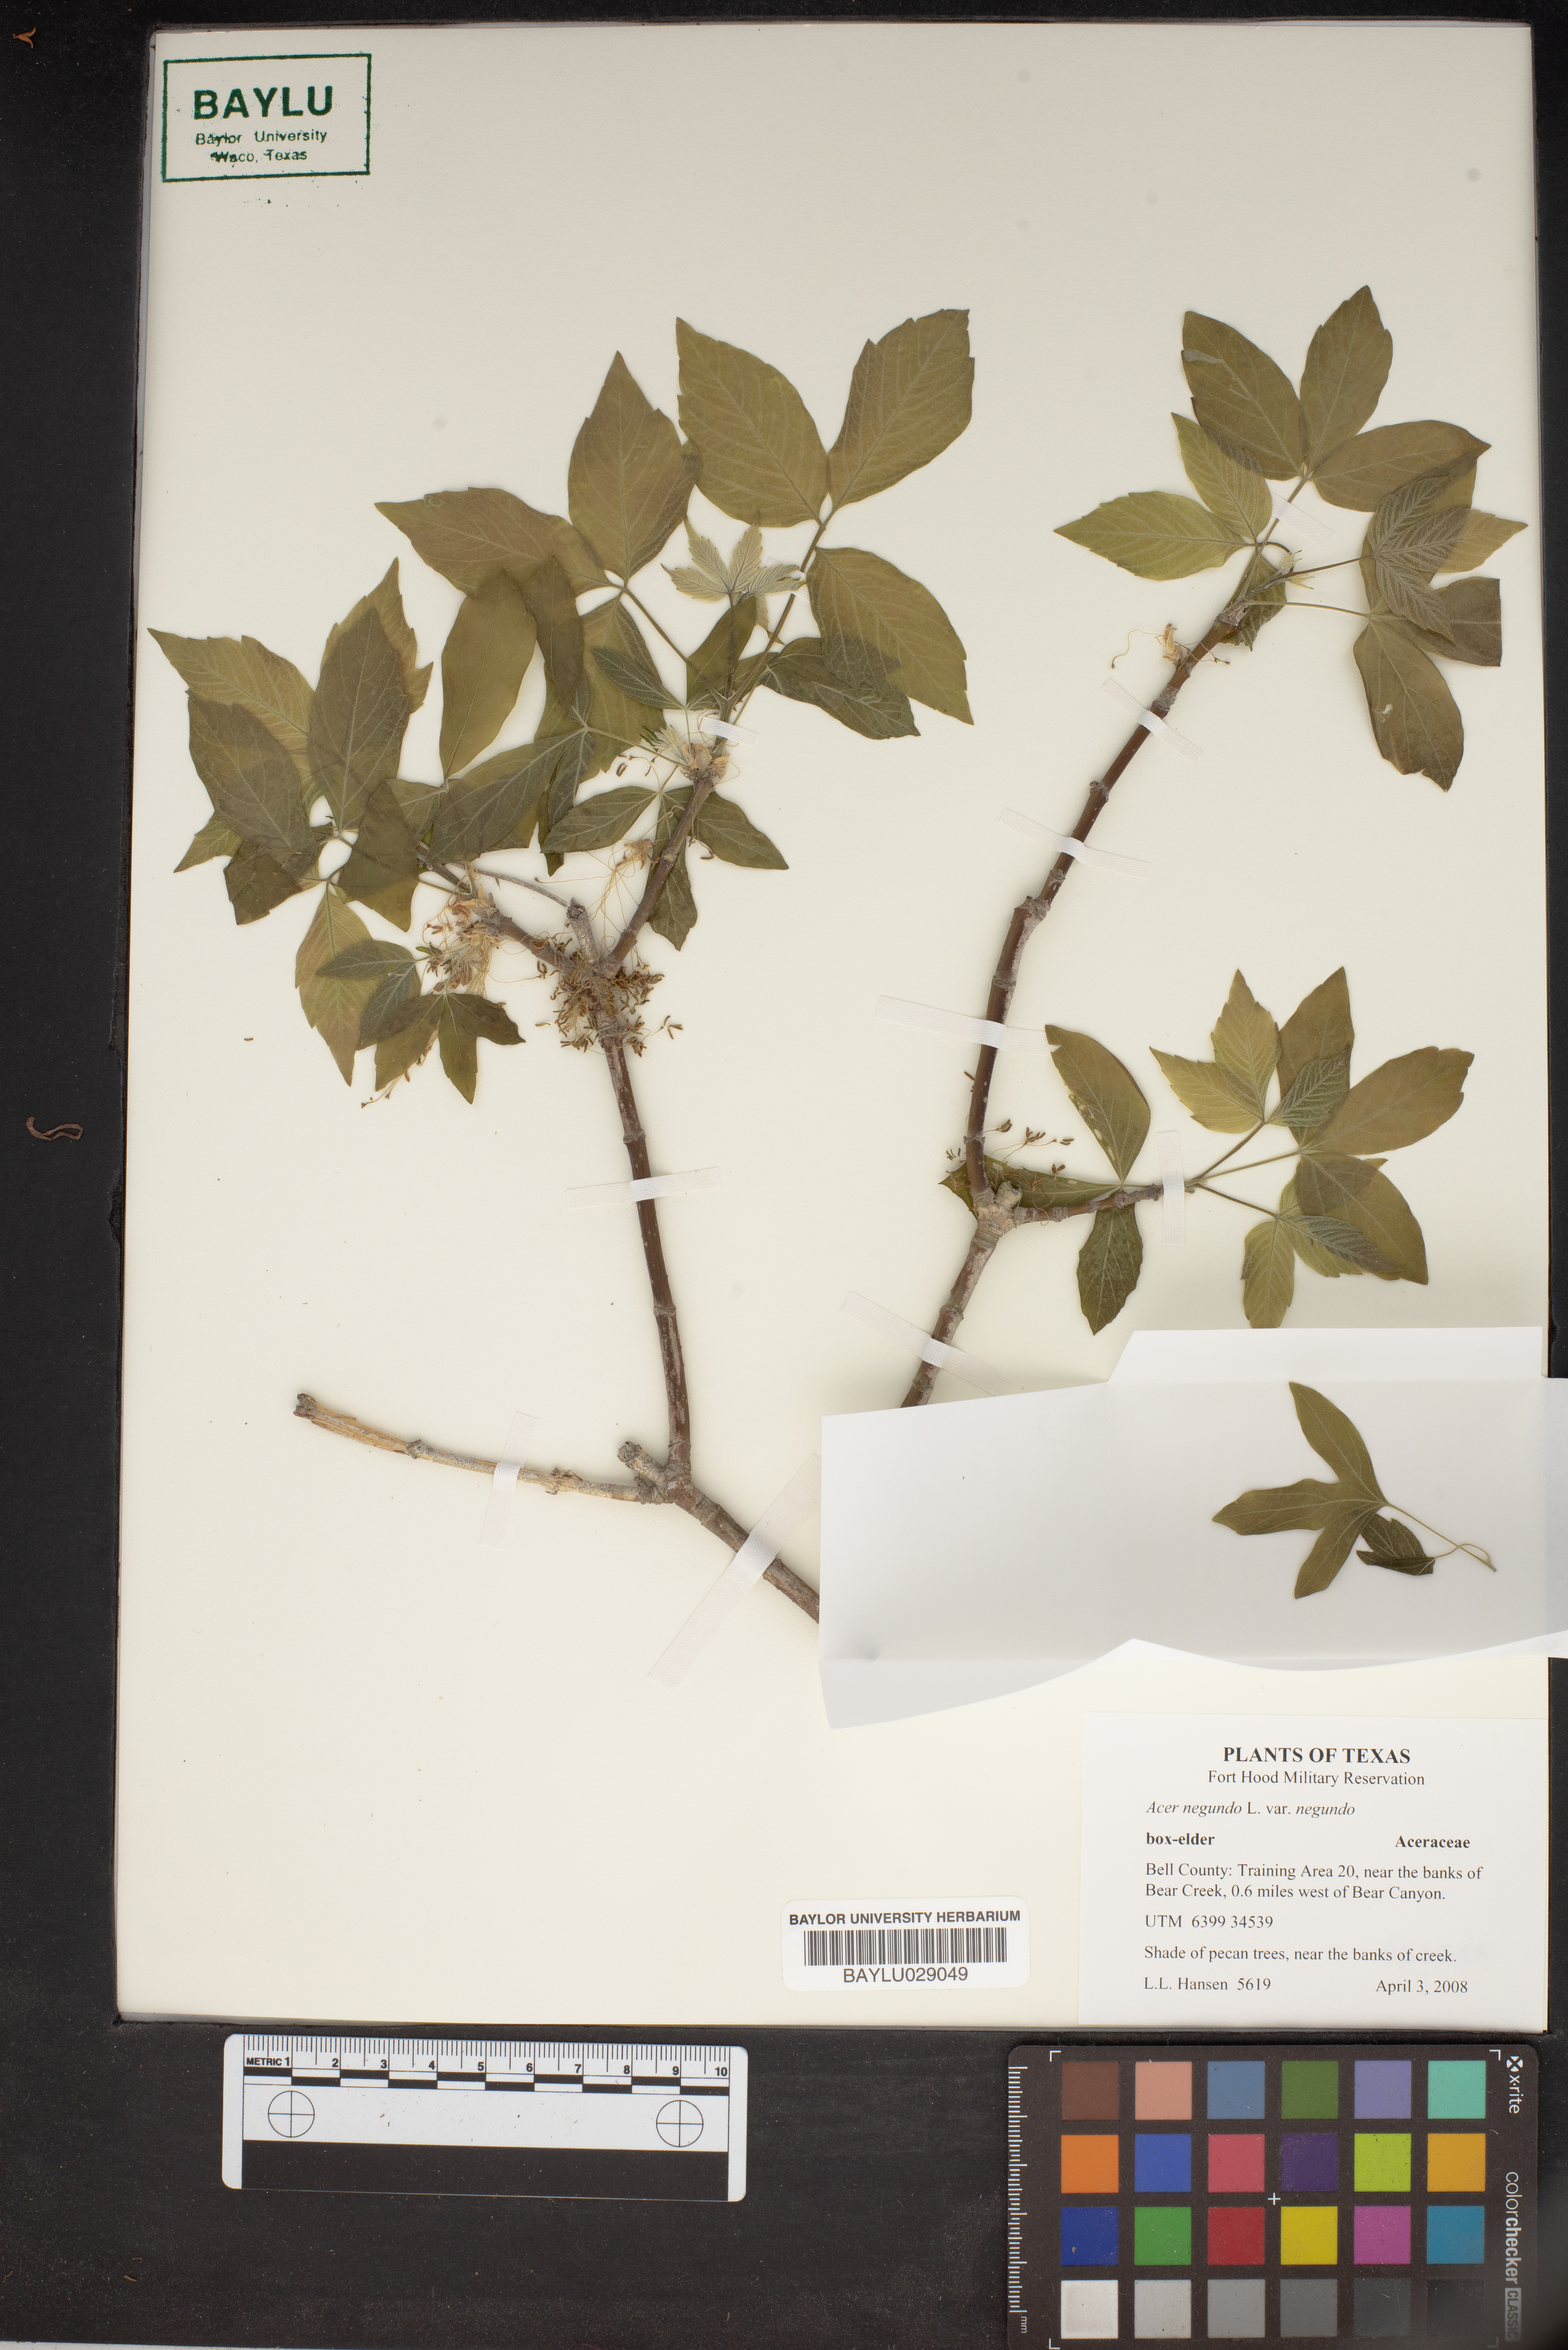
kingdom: Plantae
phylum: Tracheophyta
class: Magnoliopsida
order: Sapindales
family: Sapindaceae
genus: Acer
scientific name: Acer negundo
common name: Ashleaf maple
